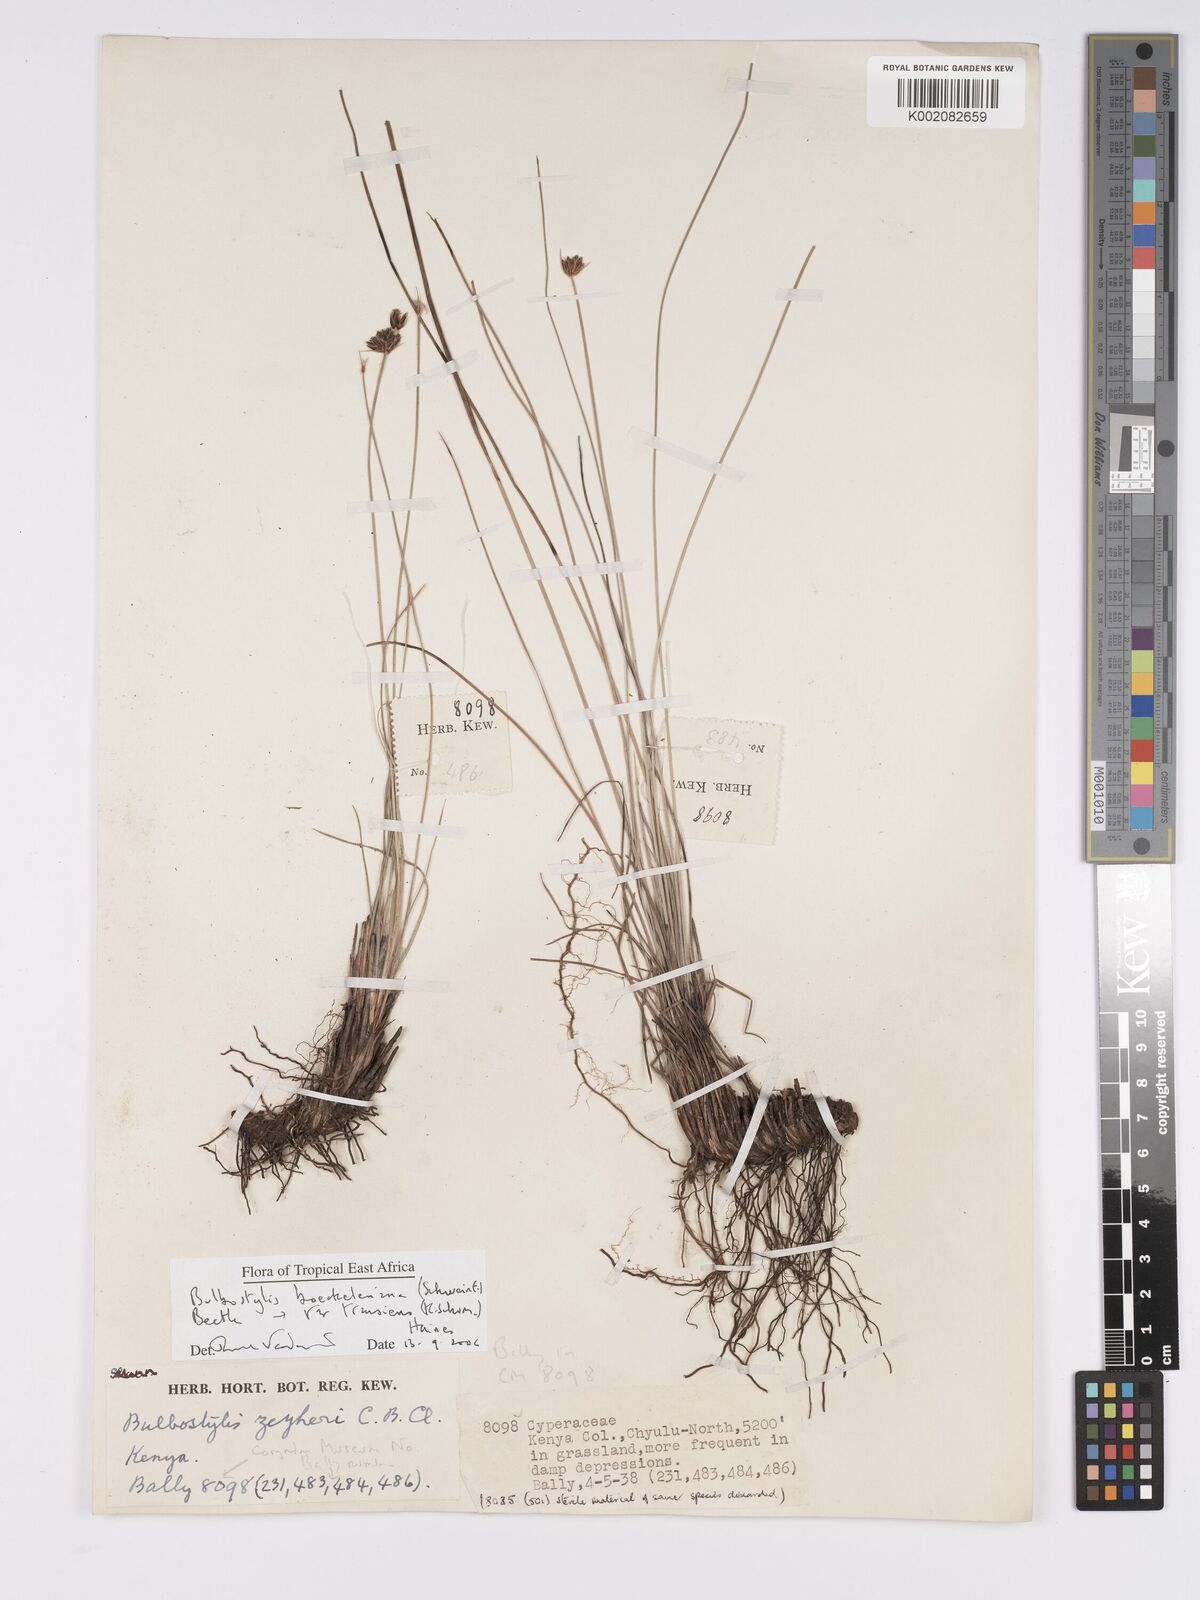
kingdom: Plantae
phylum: Tracheophyta
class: Liliopsida
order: Poales
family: Cyperaceae
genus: Bulbostylis
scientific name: Bulbostylis boeckeleriana
